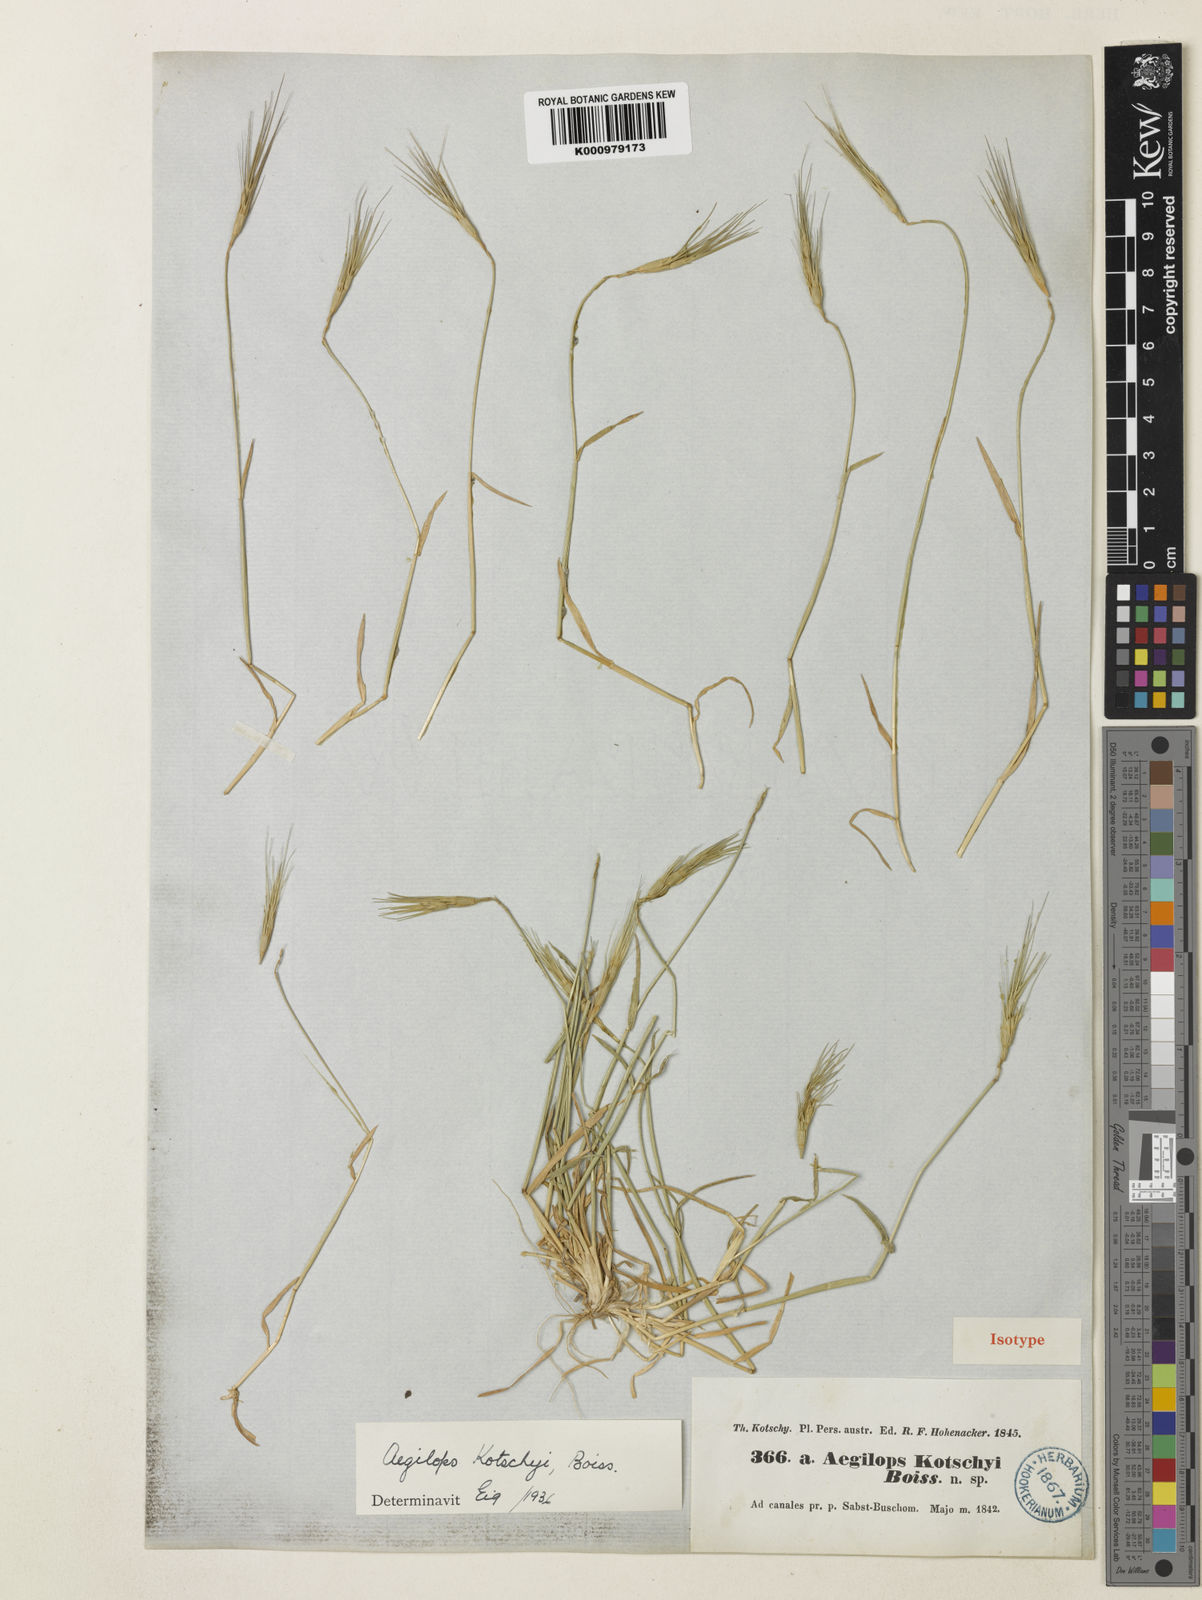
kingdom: Plantae
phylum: Tracheophyta
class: Liliopsida
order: Poales
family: Poaceae
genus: Aegilops
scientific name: Aegilops kotschyi
